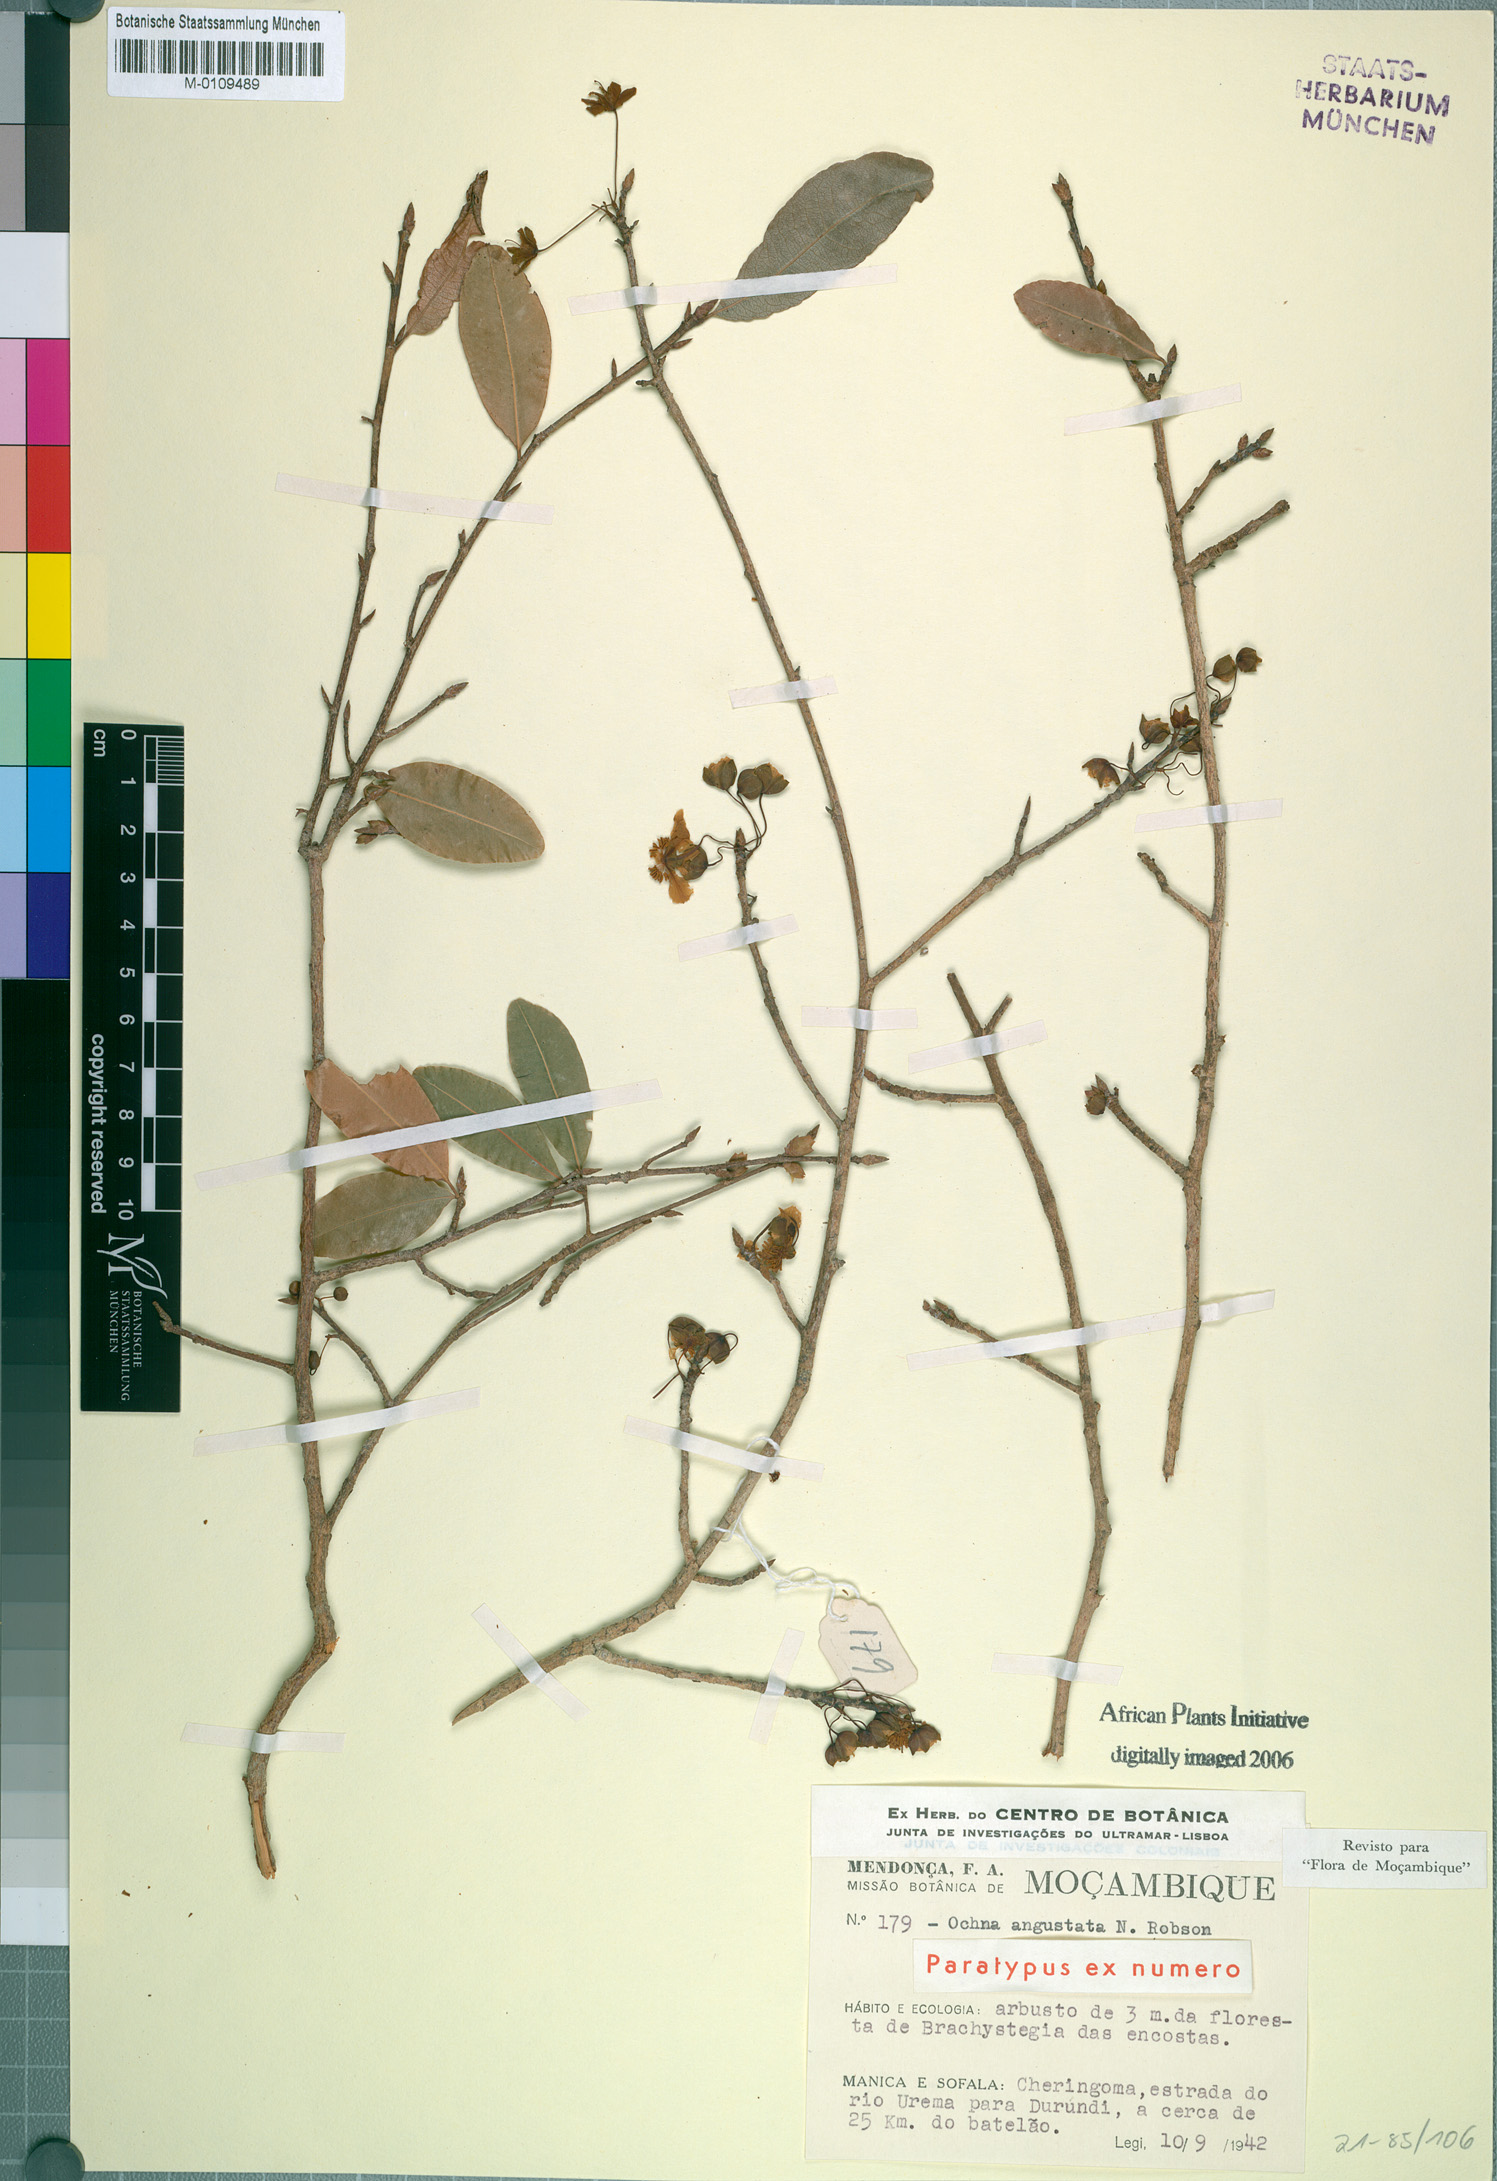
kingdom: Plantae
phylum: Tracheophyta
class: Magnoliopsida
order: Malpighiales
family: Ochnaceae
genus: Ochna
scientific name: Ochna angustata
